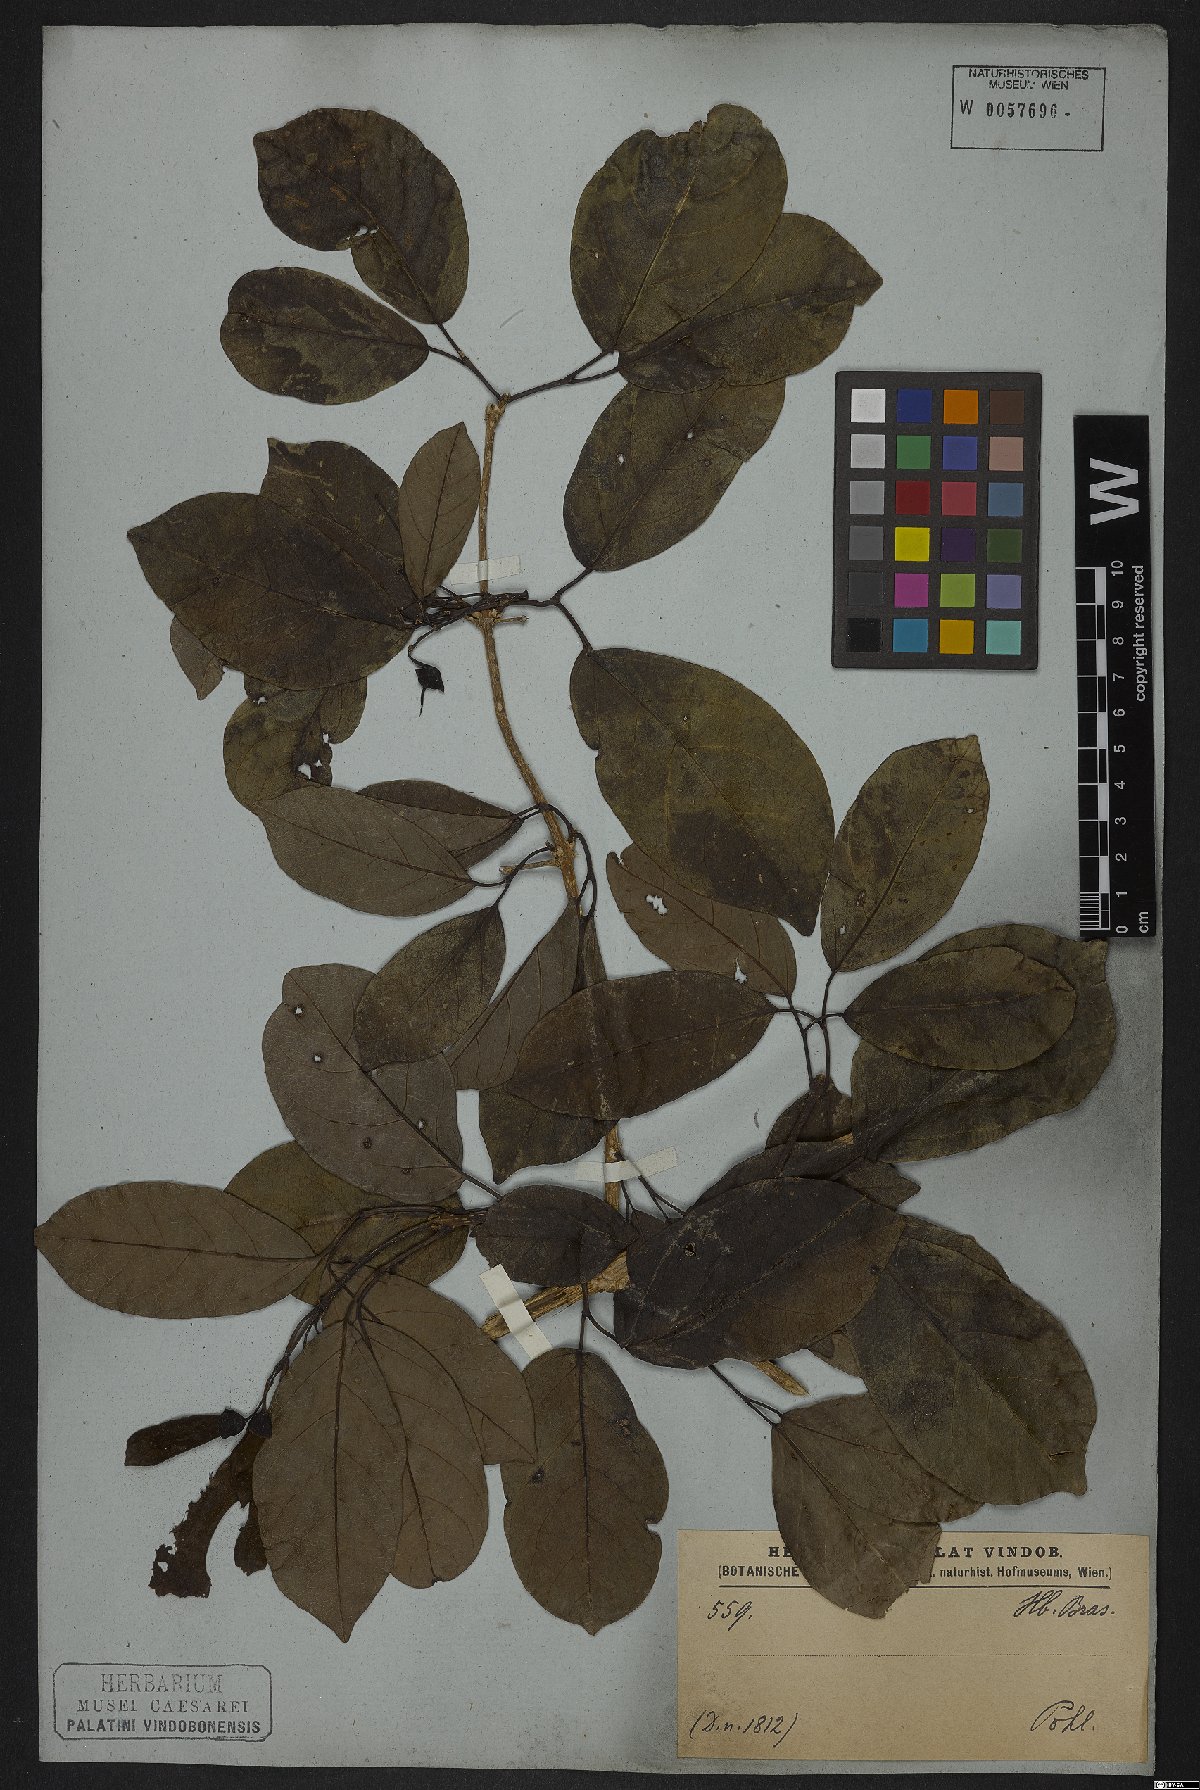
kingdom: Plantae
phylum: Tracheophyta
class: Magnoliopsida
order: Lamiales
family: Bignoniaceae
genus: Tanaecium
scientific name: Tanaecium pyramidatum
